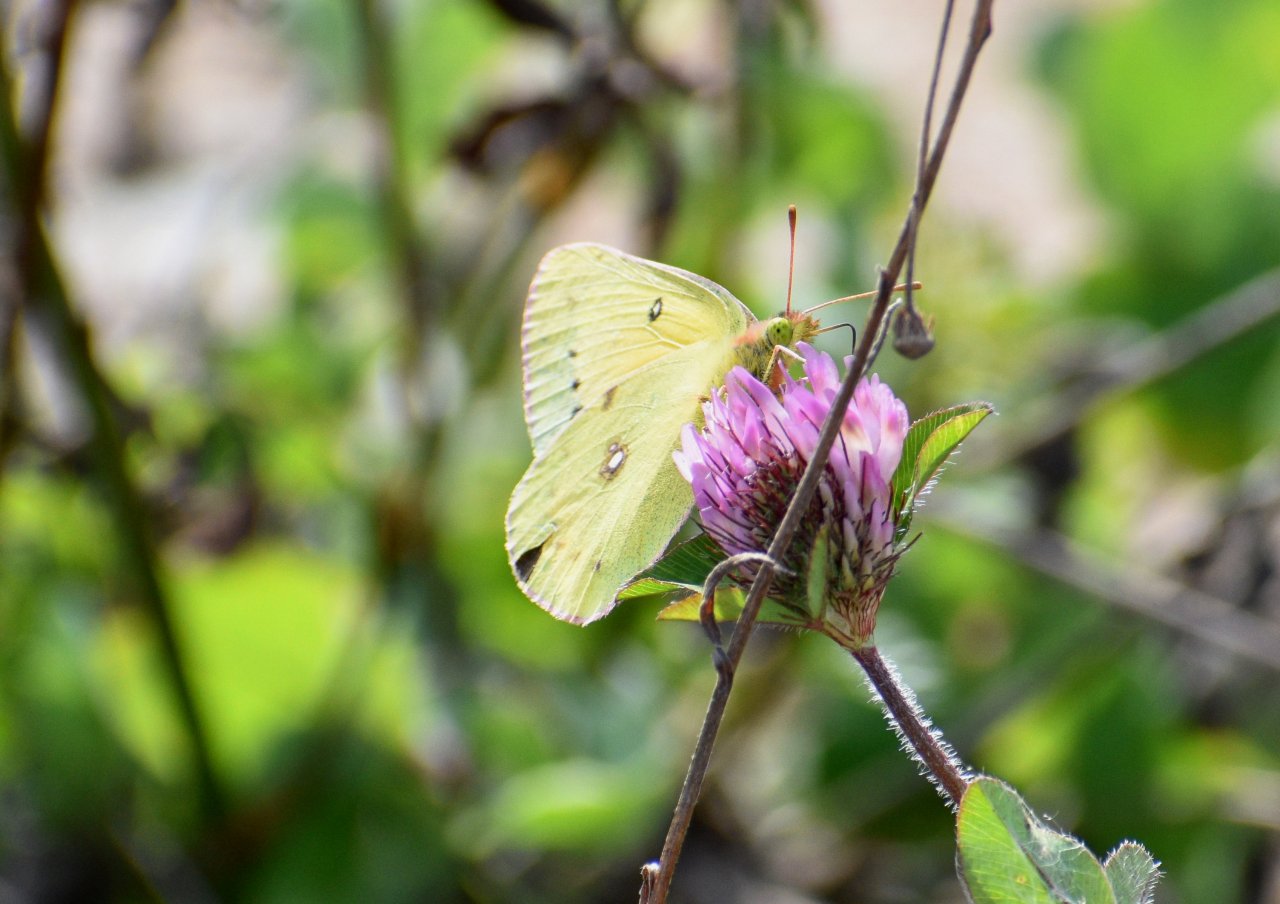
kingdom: Animalia
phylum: Arthropoda
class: Insecta
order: Lepidoptera
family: Pieridae
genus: Colias
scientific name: Colias eurytheme
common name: Orange Sulphur
